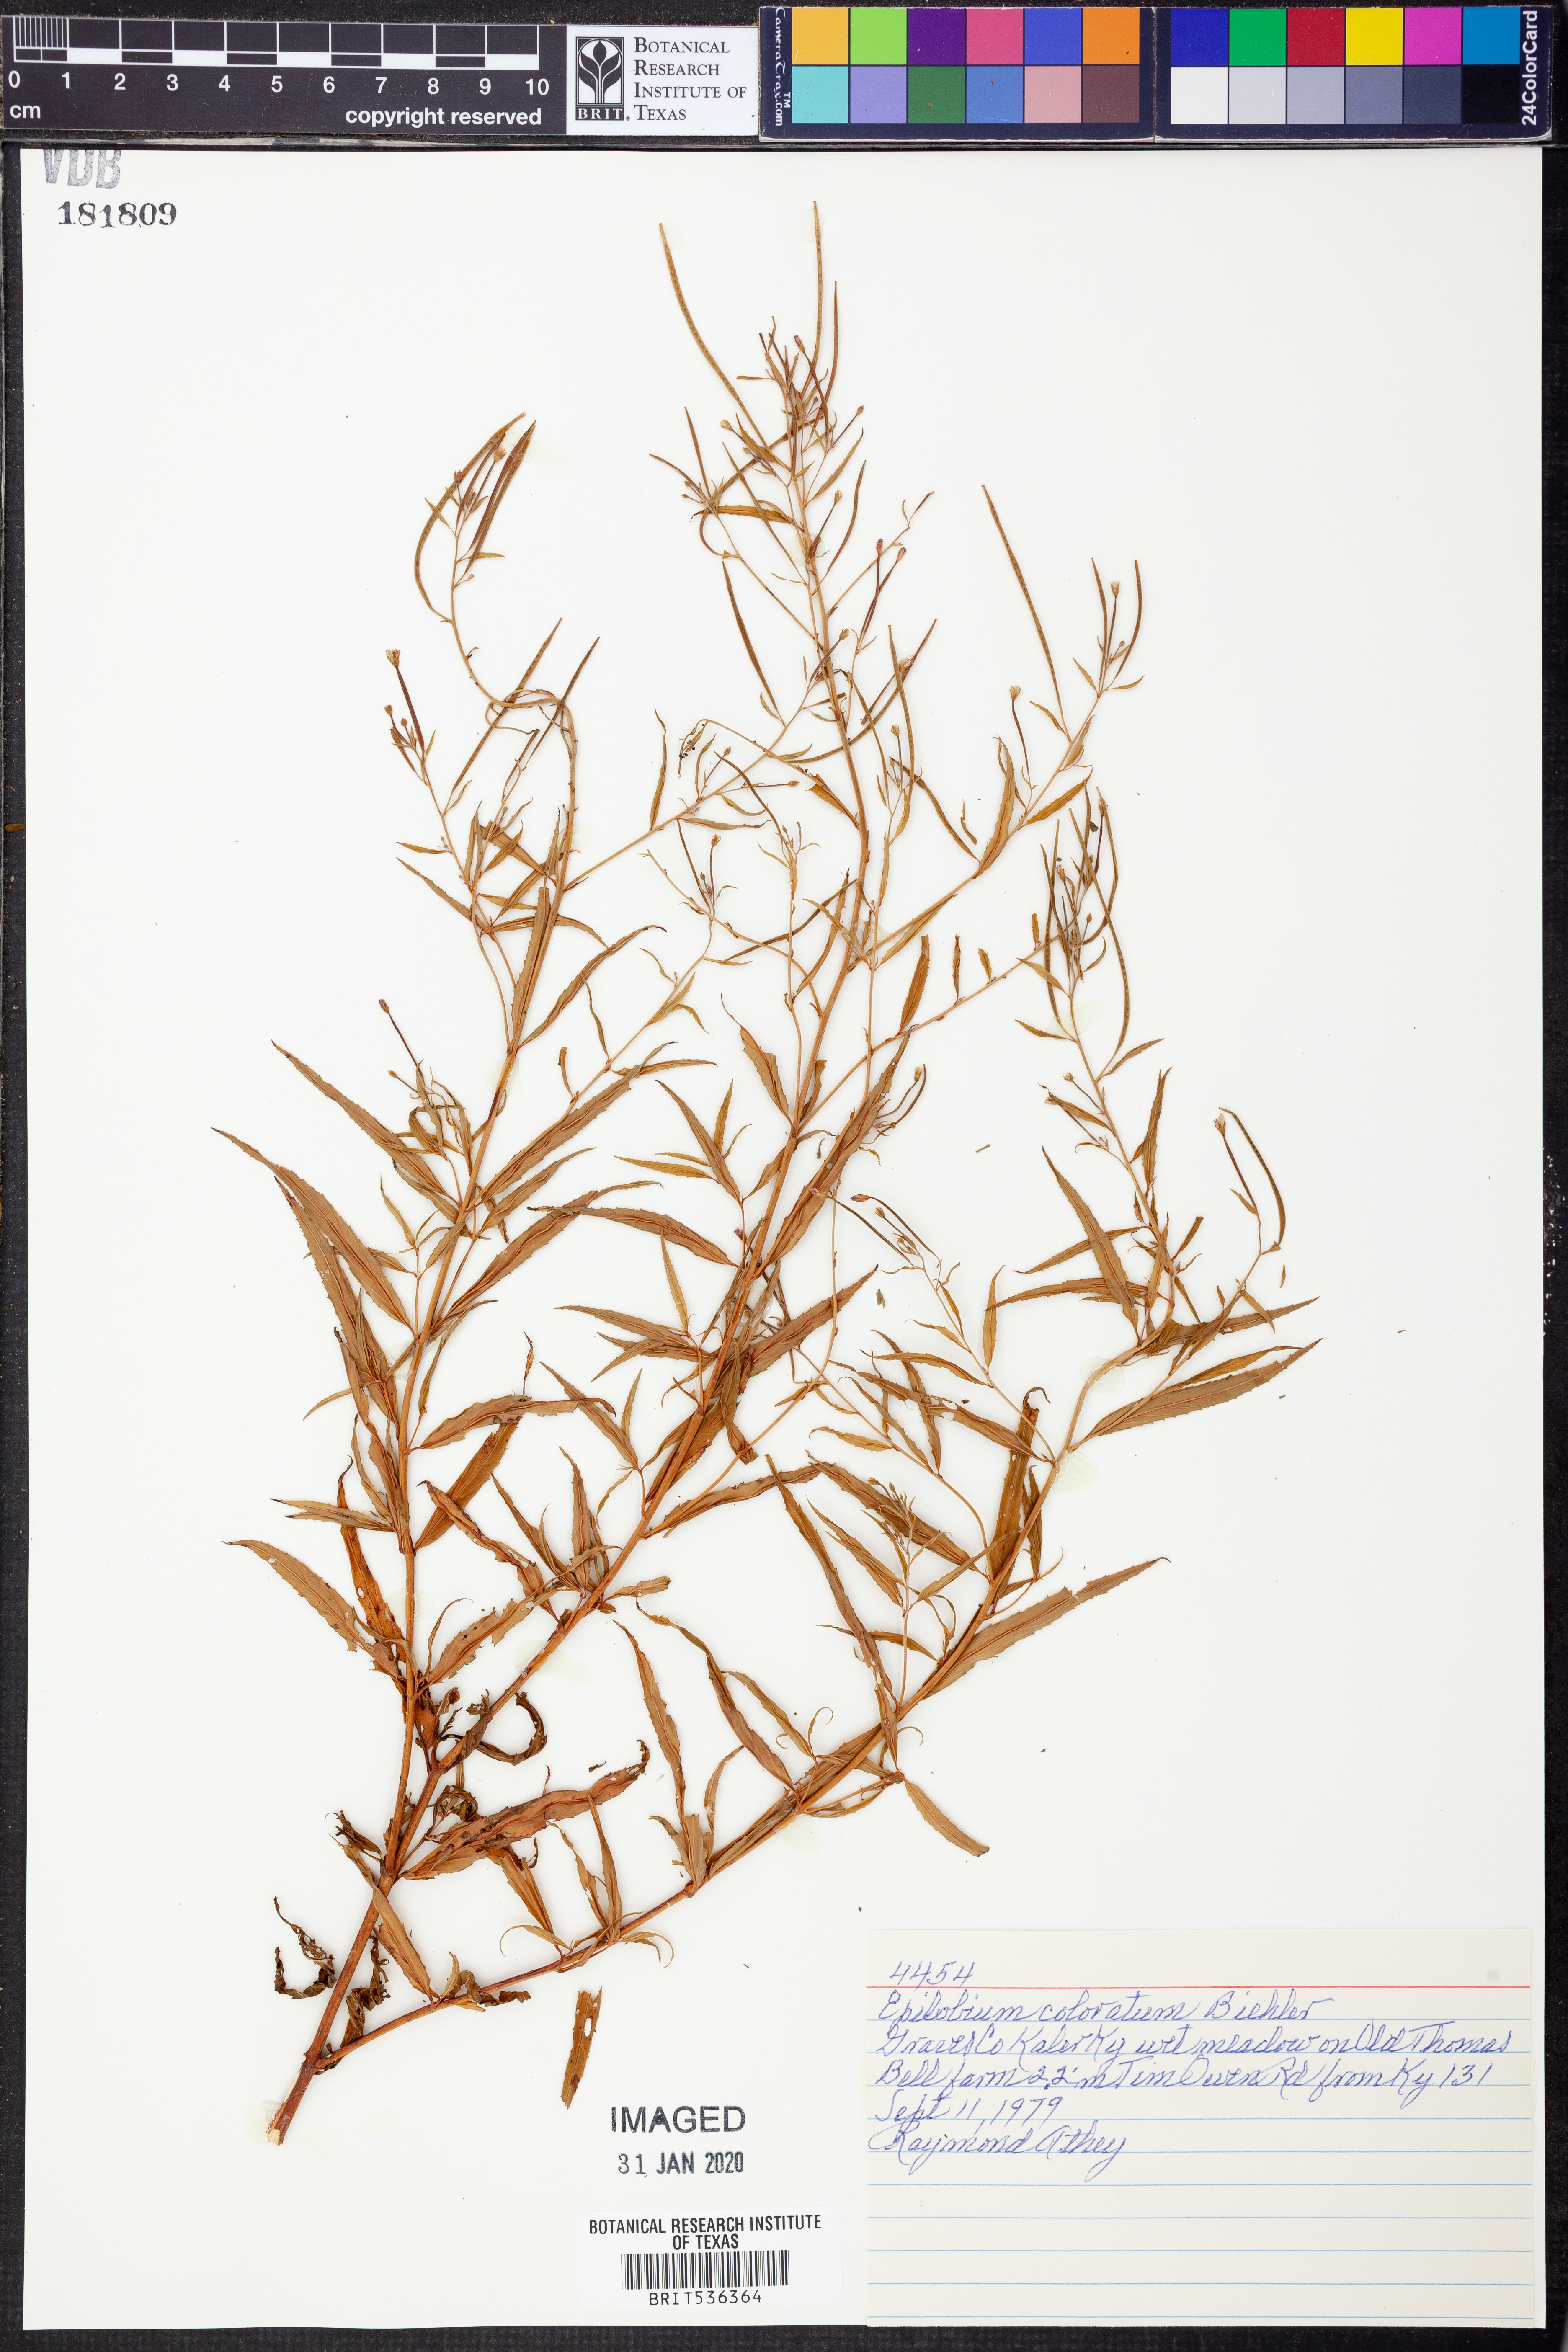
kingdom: Plantae
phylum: Tracheophyta
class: Magnoliopsida
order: Myrtales
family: Onagraceae
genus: Epilobium
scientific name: Epilobium coloratum
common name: Bronze willowherb
